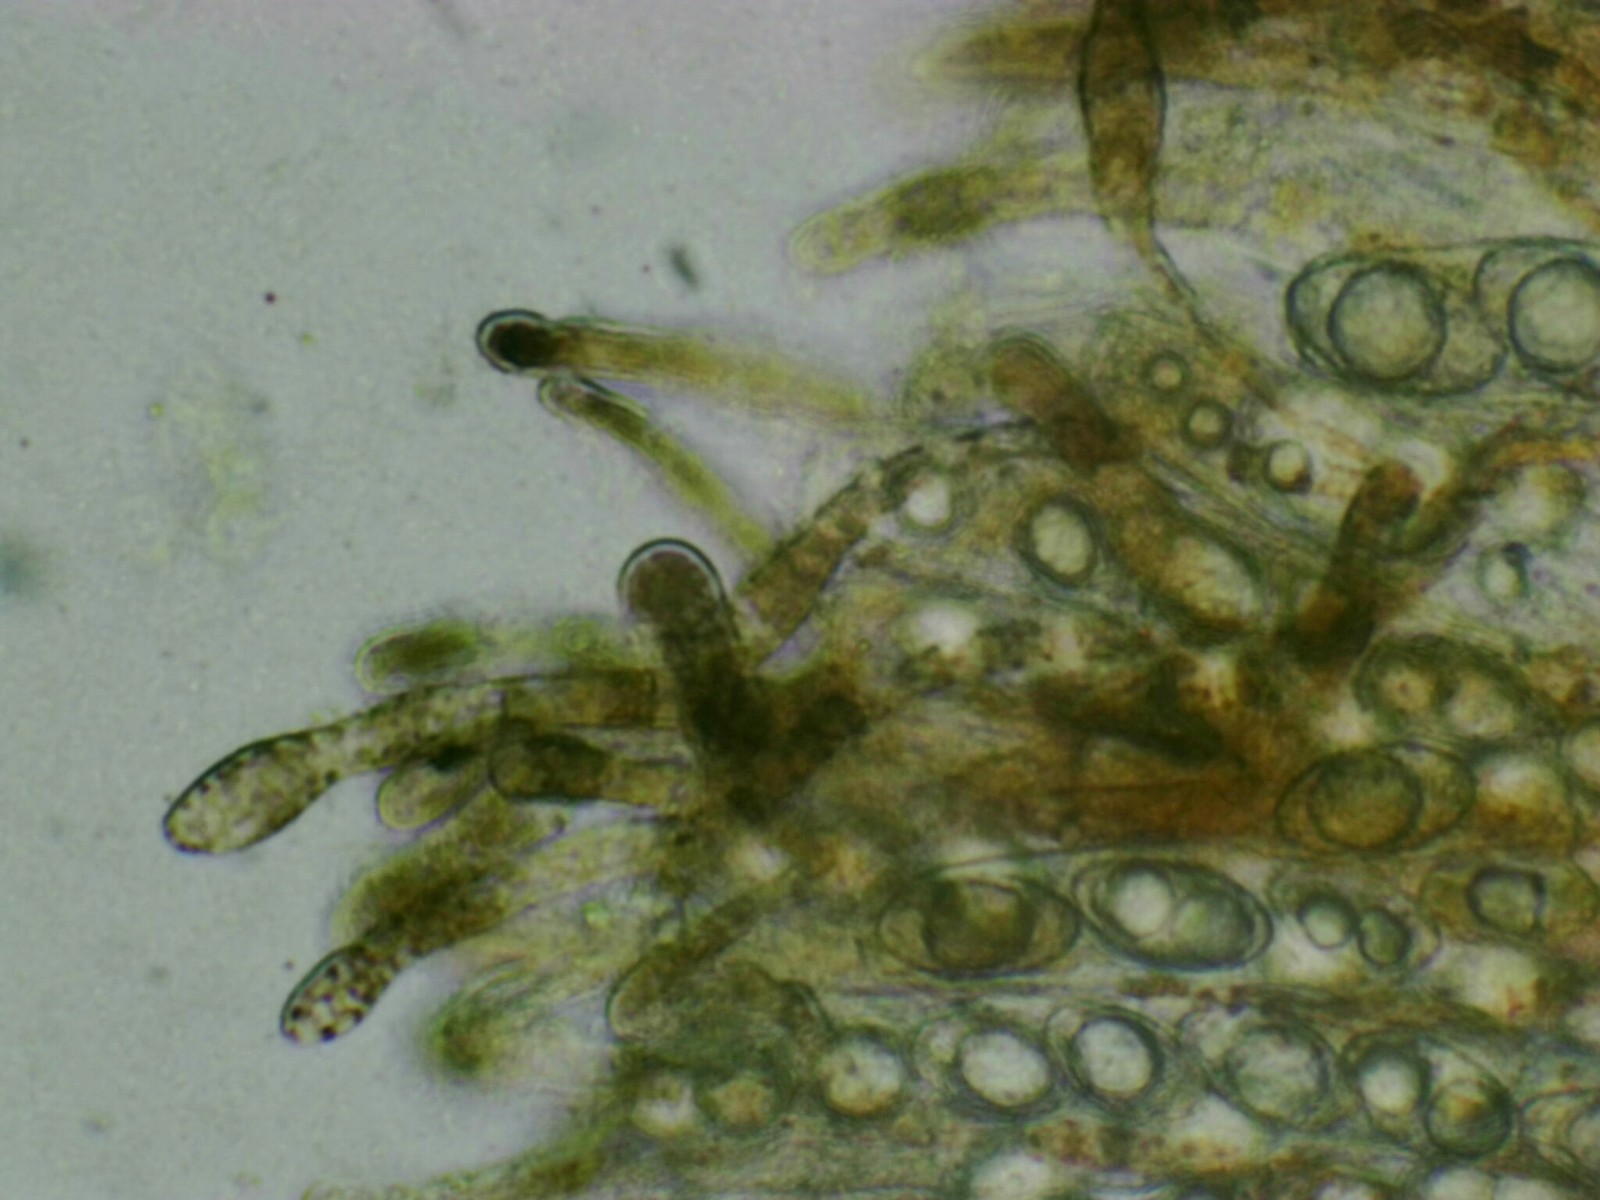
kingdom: Fungi
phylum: Ascomycota
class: Pezizomycetes
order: Pezizales
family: Pyronemataceae
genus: Neottiella
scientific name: Neottiella
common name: mosbæger
